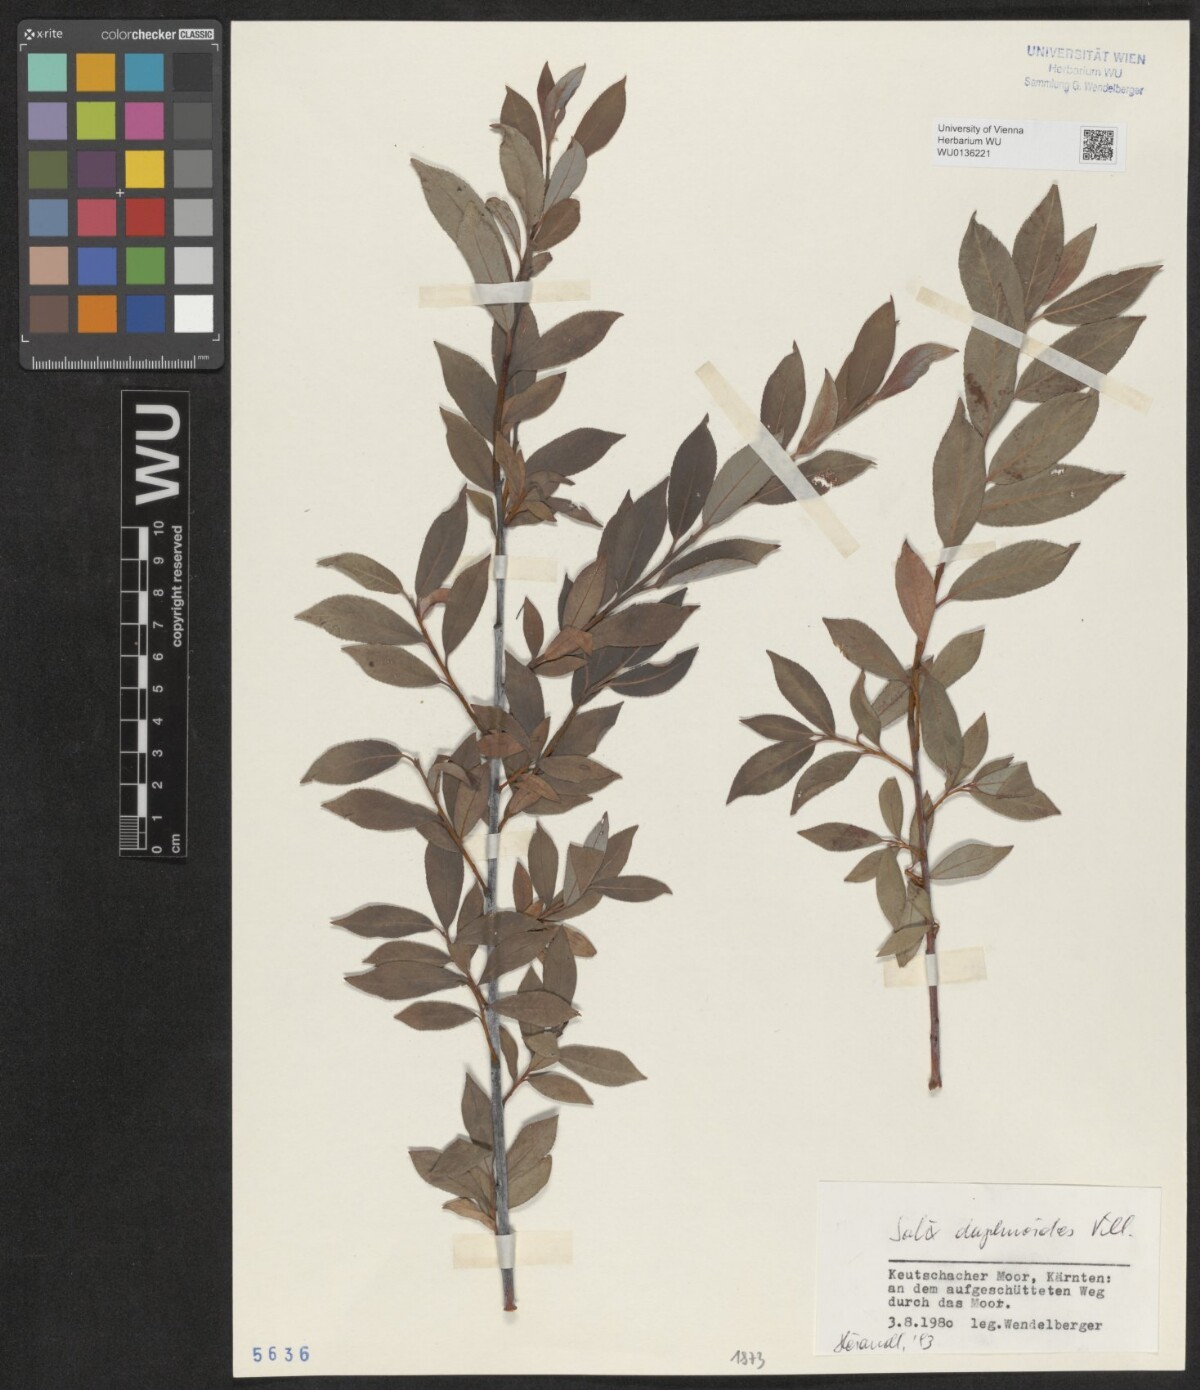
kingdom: Plantae
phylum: Tracheophyta
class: Magnoliopsida
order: Malpighiales
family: Salicaceae
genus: Salix
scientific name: Salix daphnoides
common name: European violet-willow
